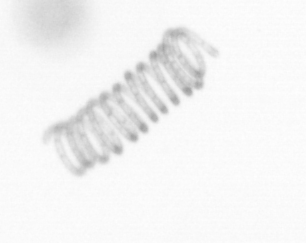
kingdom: Chromista
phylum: Ochrophyta
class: Bacillariophyceae
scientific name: Bacillariophyceae
